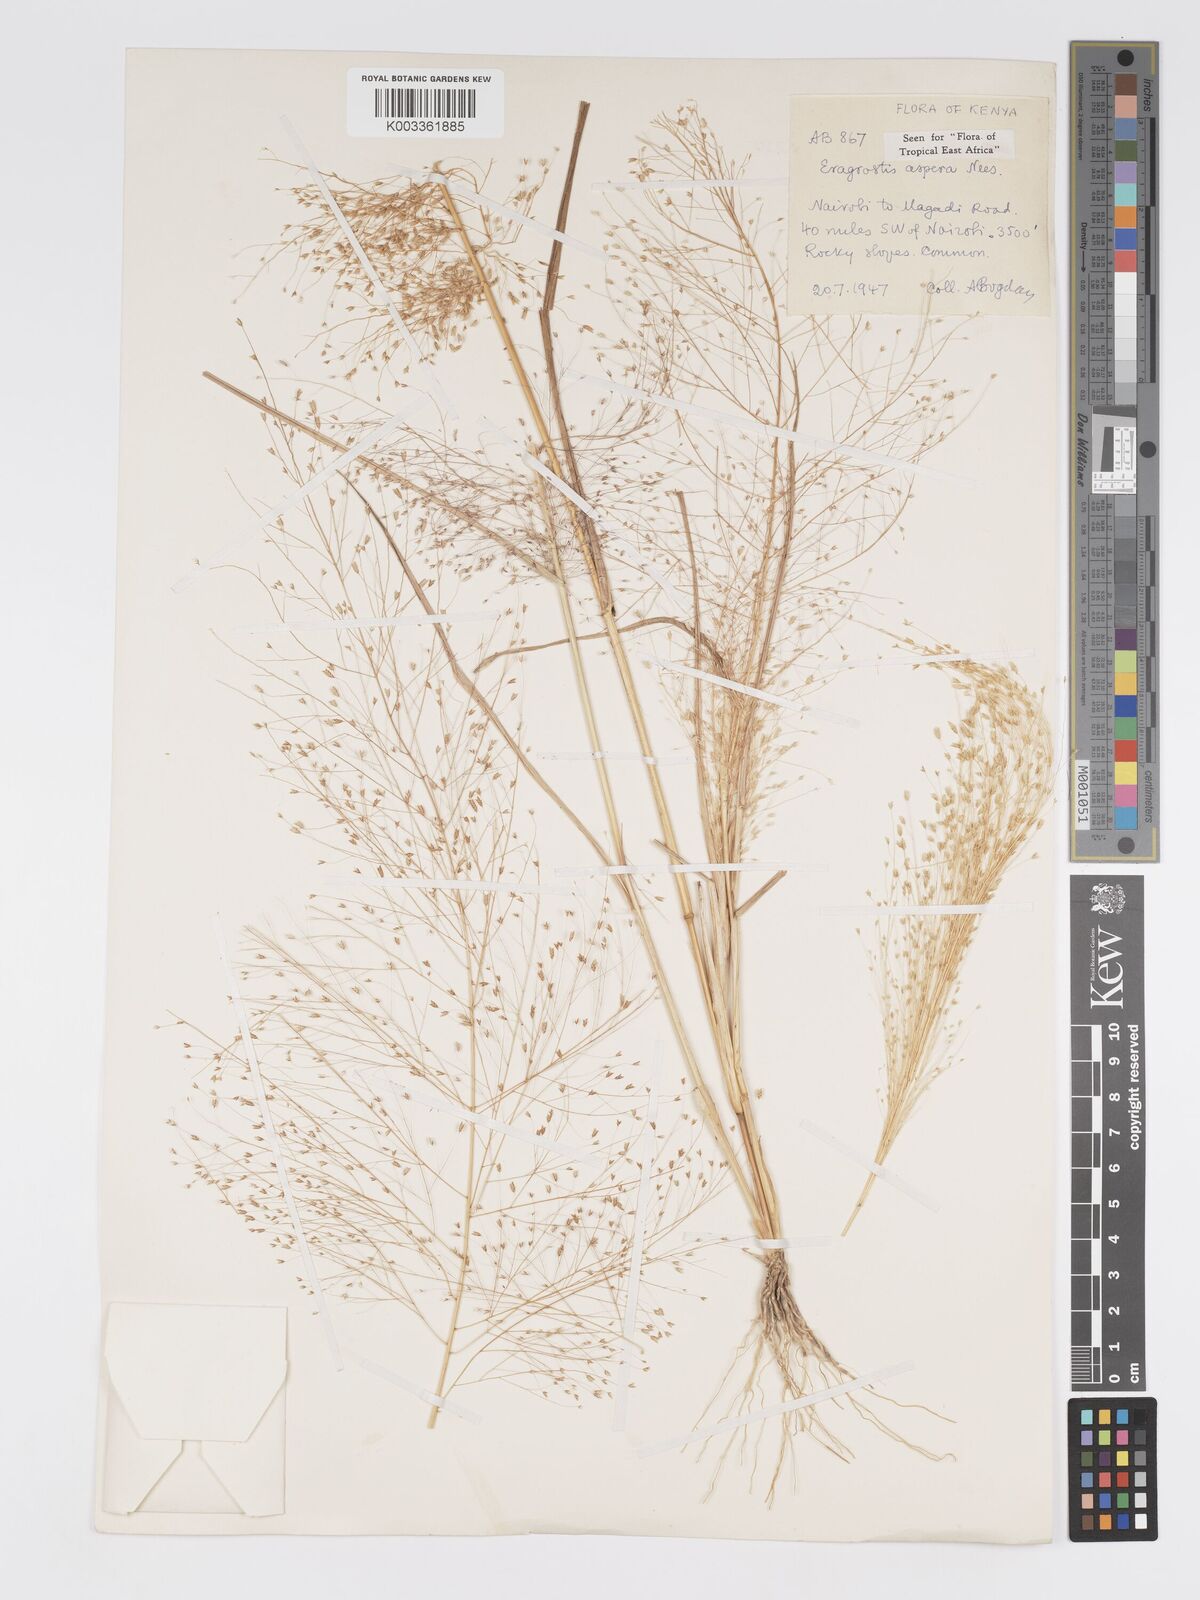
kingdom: Plantae
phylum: Tracheophyta
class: Liliopsida
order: Poales
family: Poaceae
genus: Eragrostis
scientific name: Eragrostis aspera
